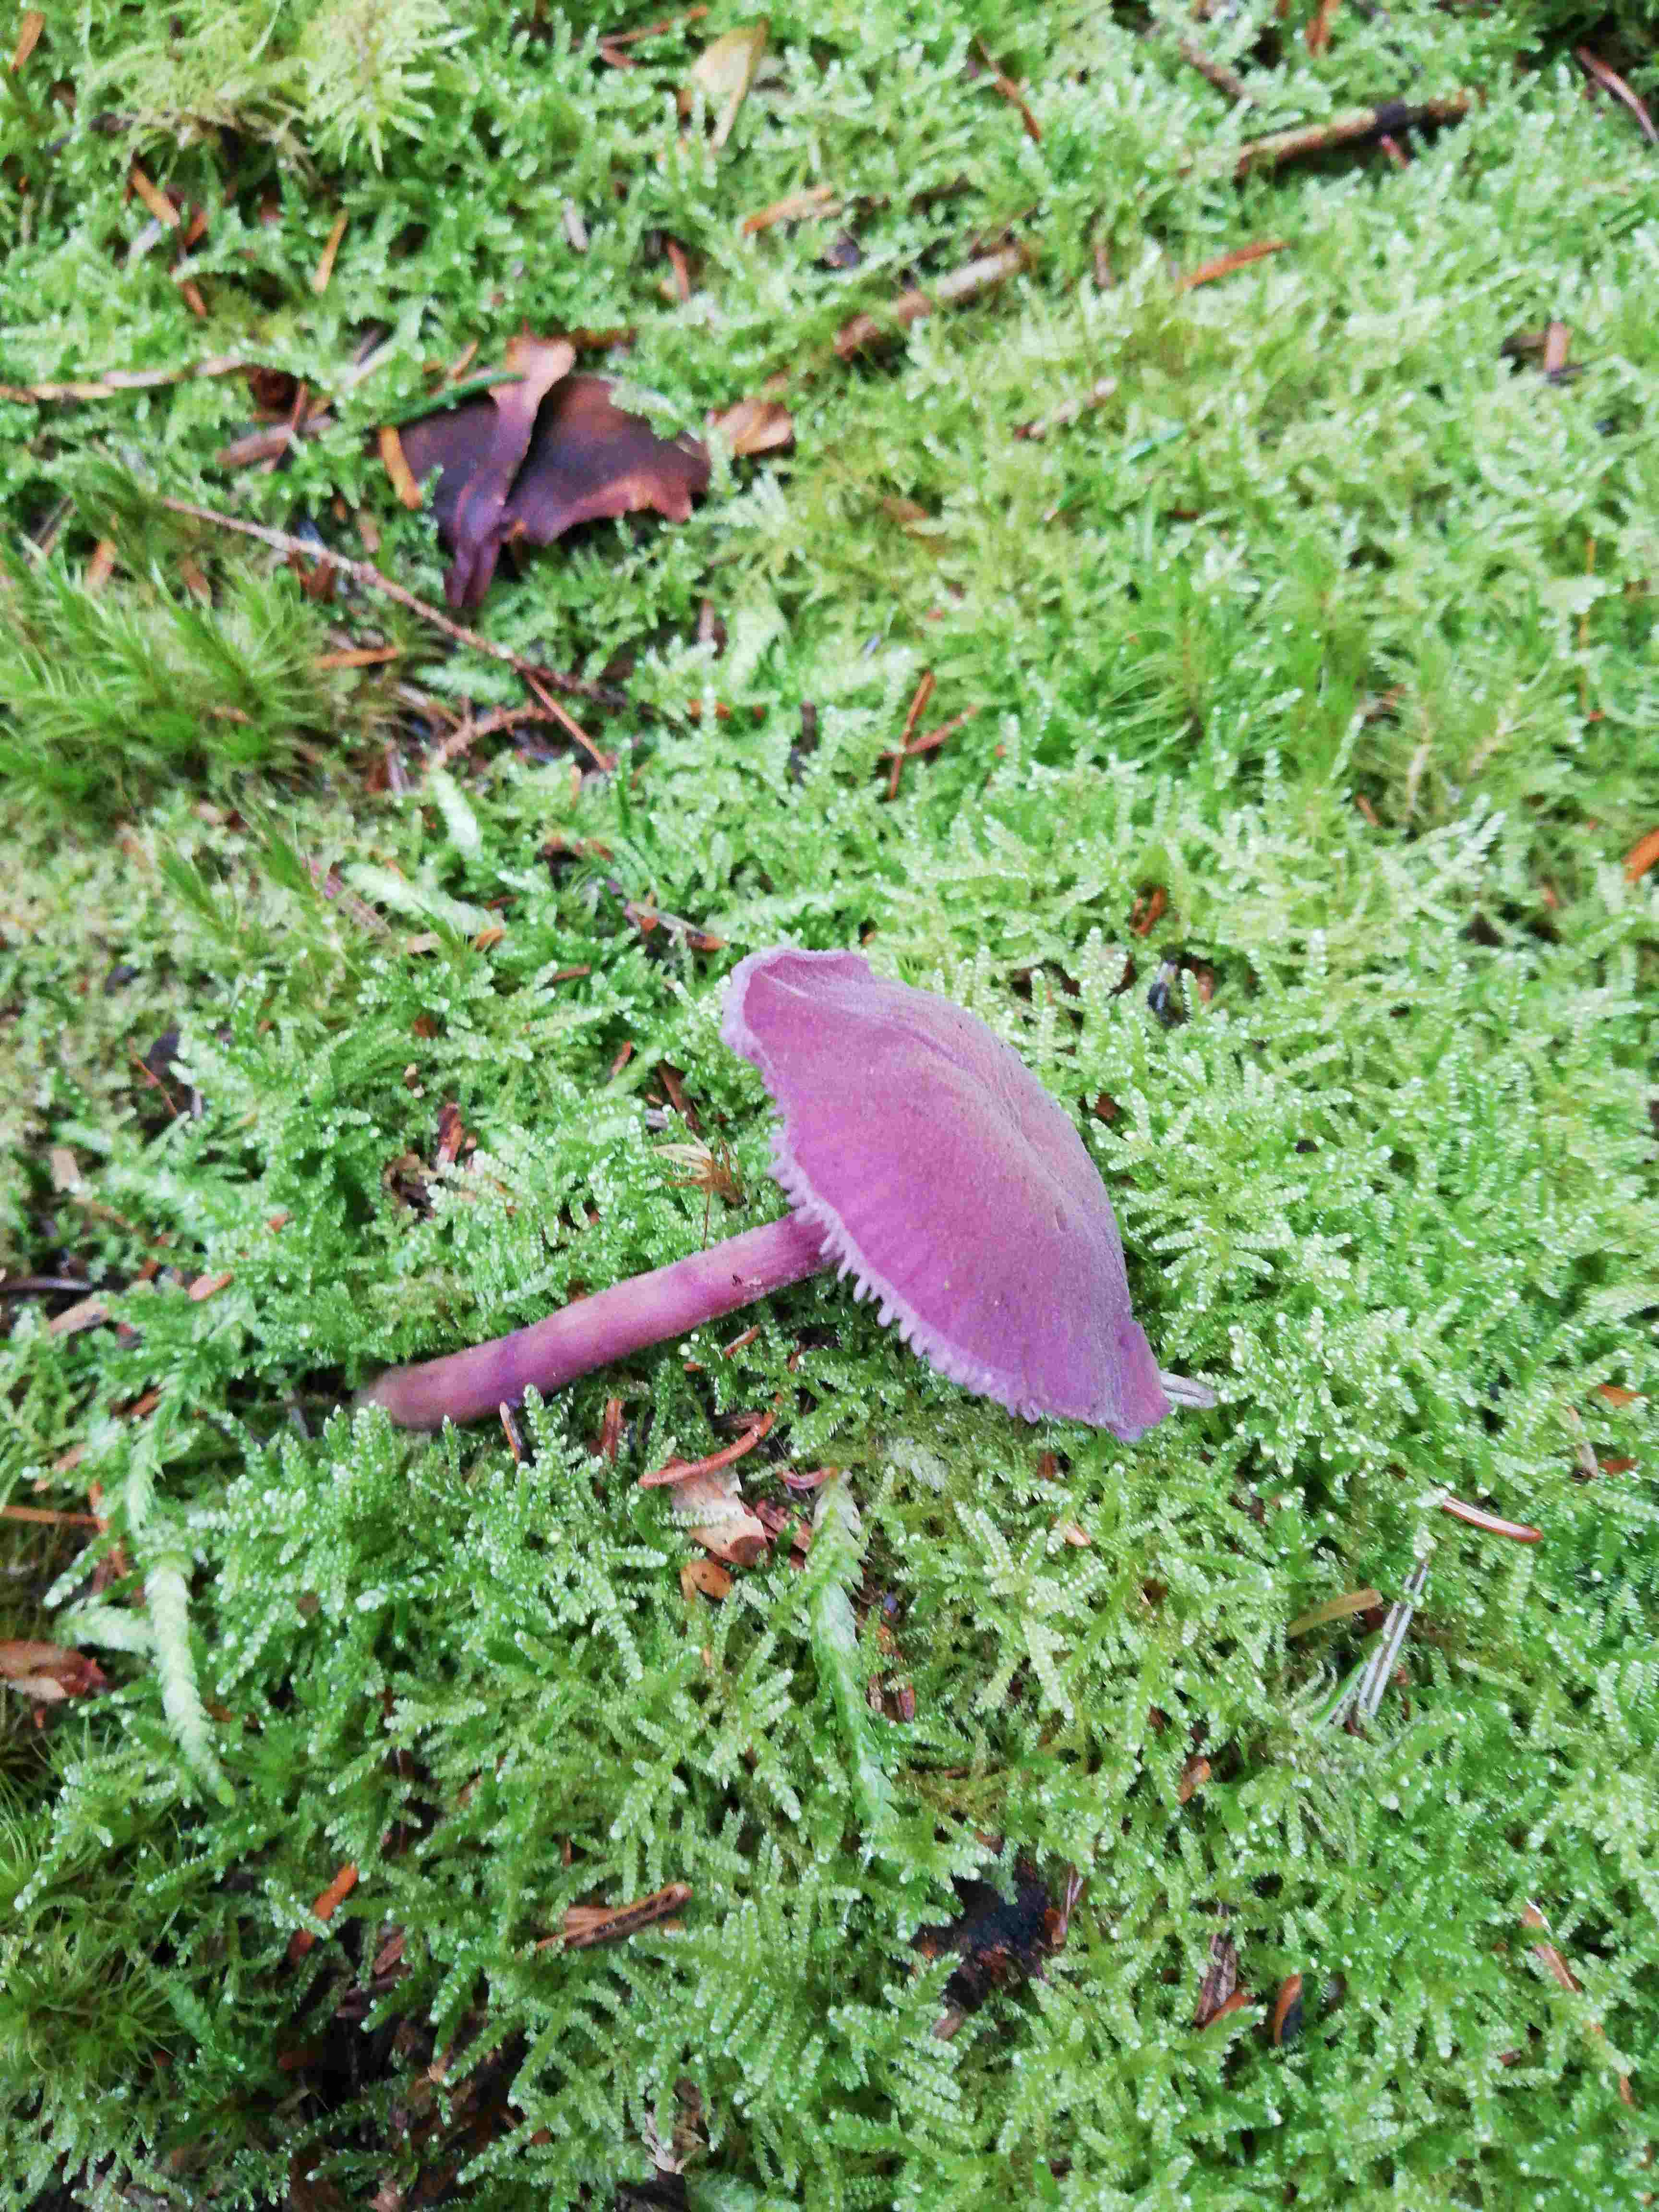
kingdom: Fungi
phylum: Basidiomycota
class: Agaricomycetes
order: Agaricales
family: Hydnangiaceae
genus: Laccaria
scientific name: Laccaria amethystina
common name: violet ametysthat
